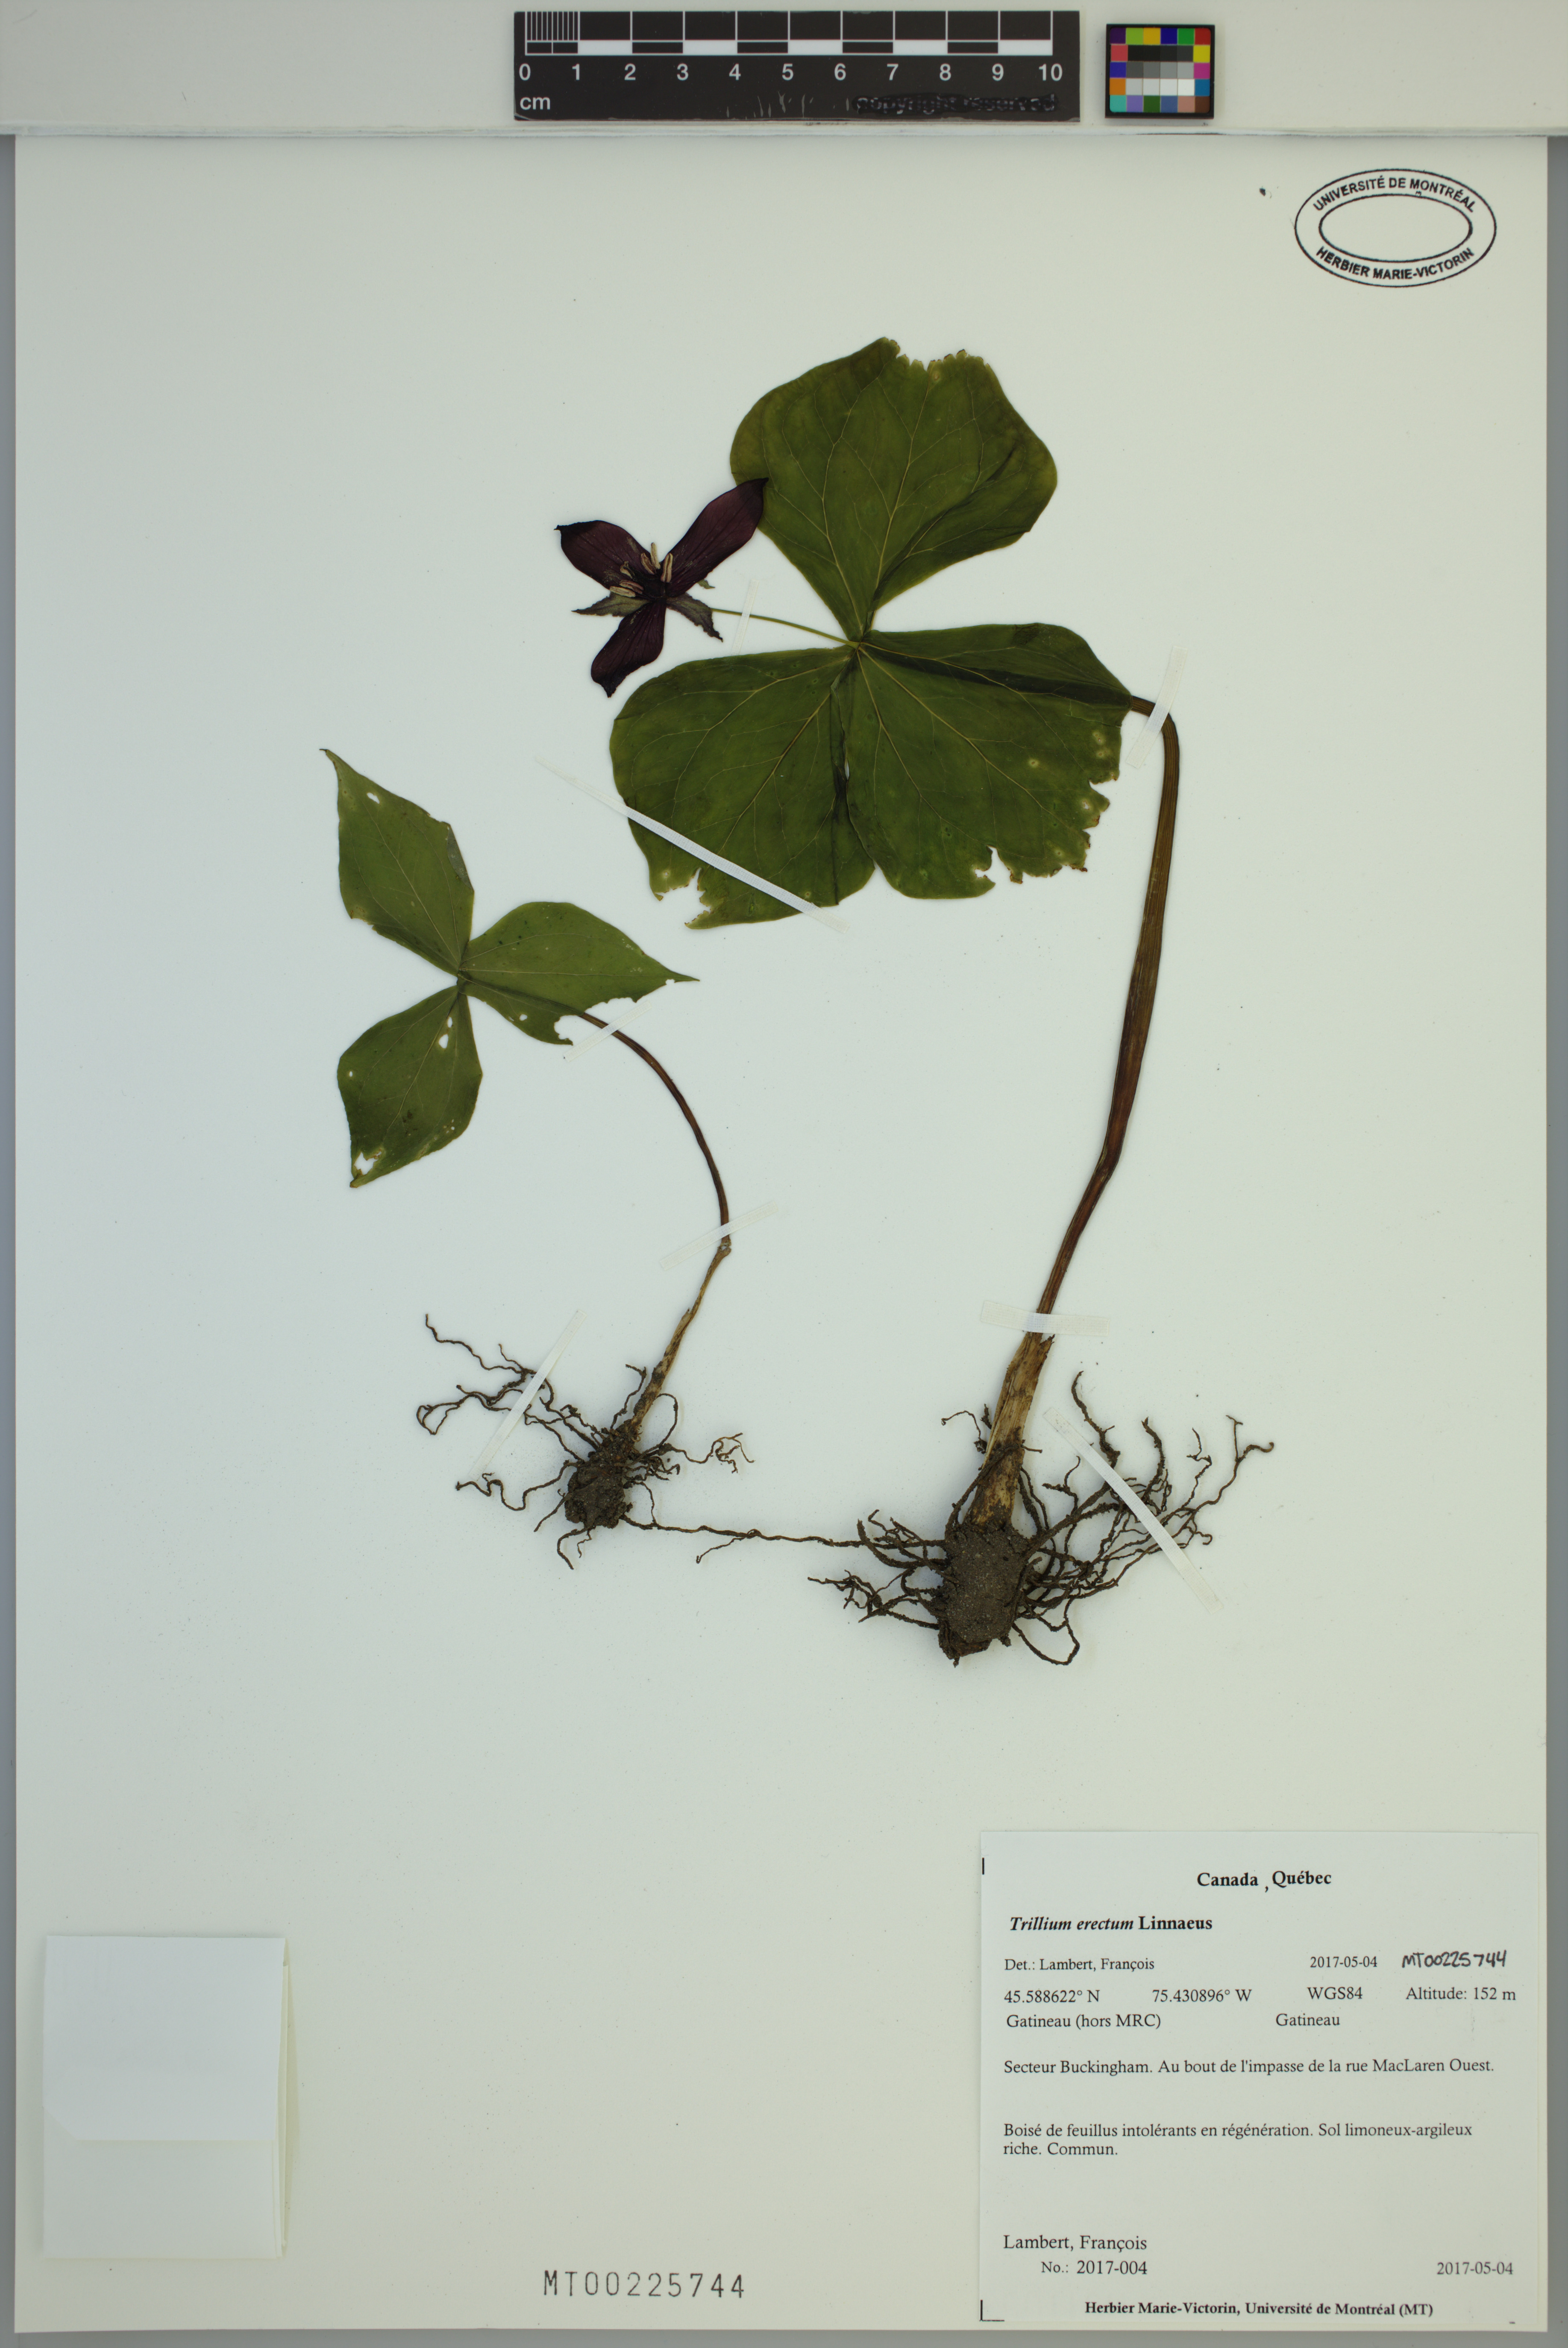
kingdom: Plantae
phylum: Tracheophyta
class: Liliopsida
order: Liliales
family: Melanthiaceae
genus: Trillium
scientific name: Trillium erectum
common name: Purple trillium
